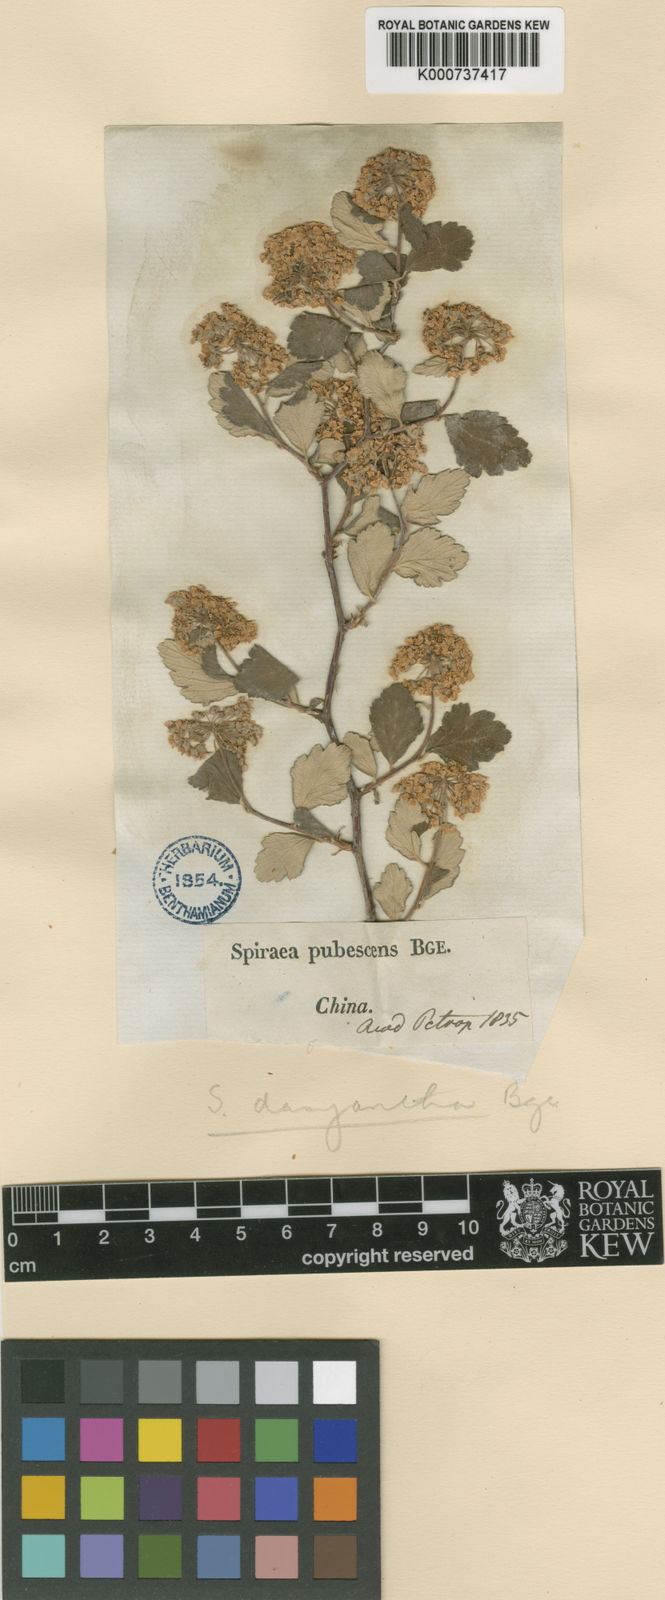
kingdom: Plantae
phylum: Tracheophyta
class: Magnoliopsida
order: Rosales
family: Rosaceae
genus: Spiraea
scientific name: Spiraea dasyantha
